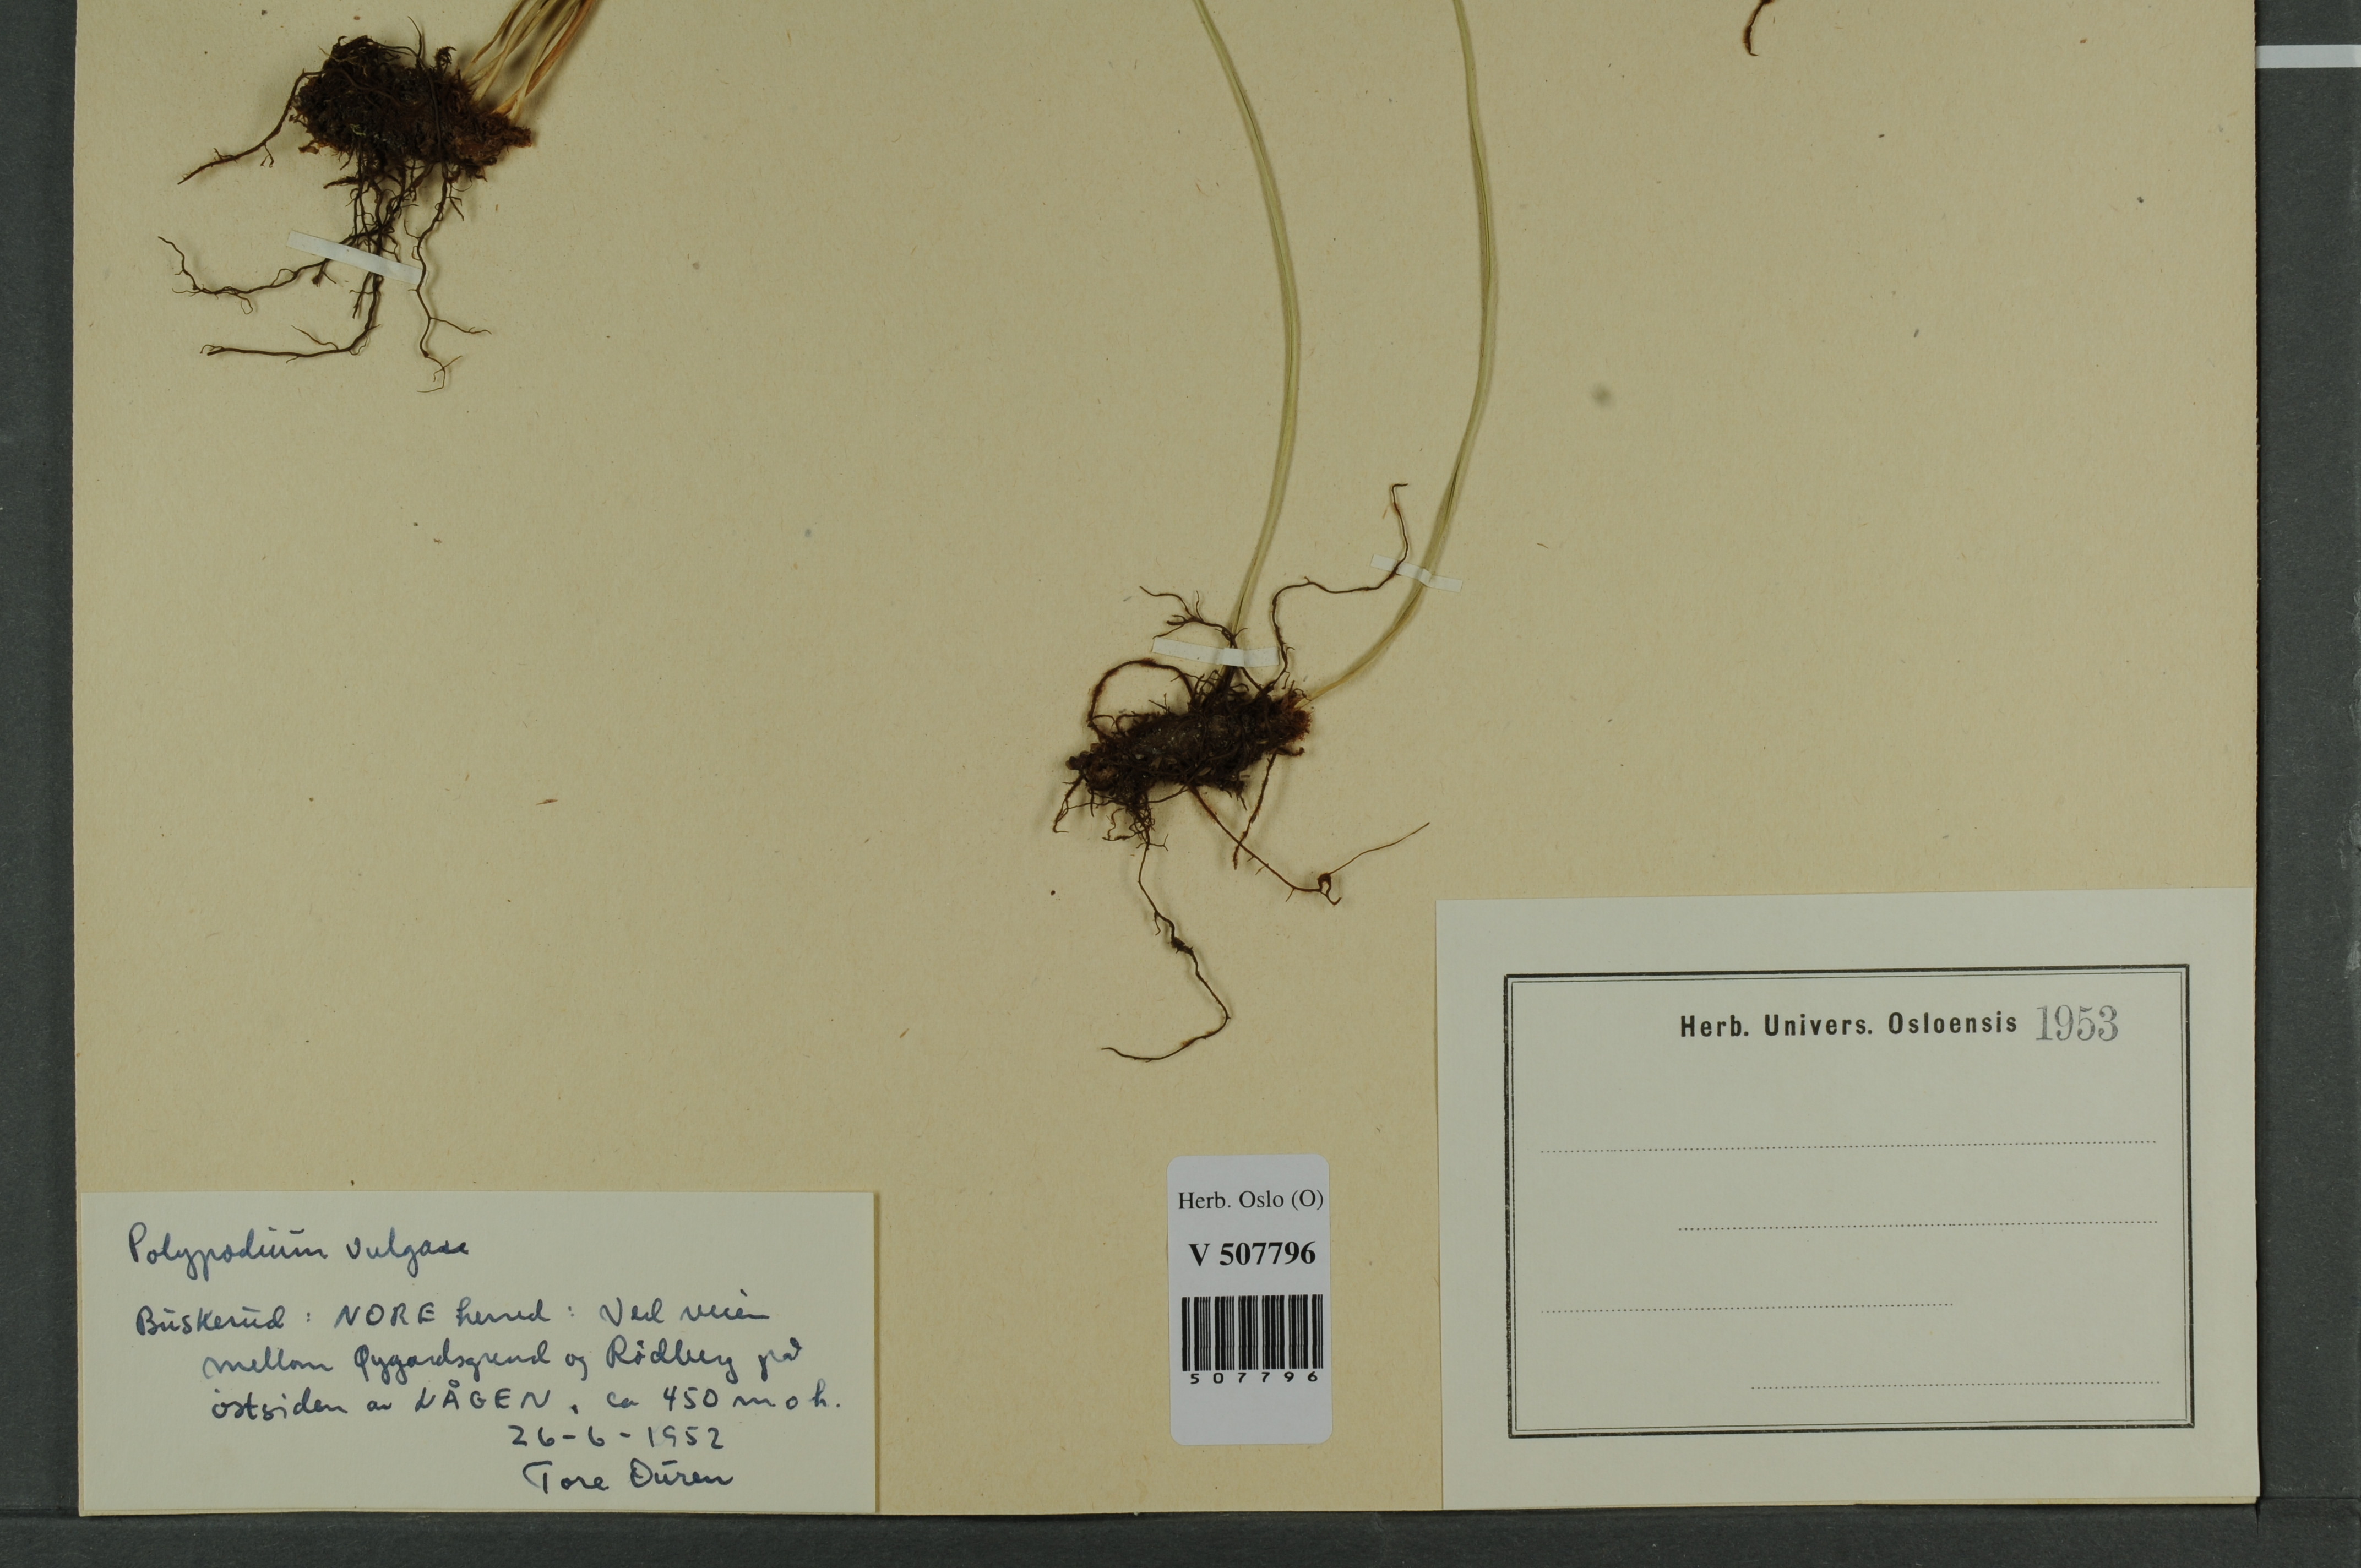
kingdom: Plantae
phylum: Tracheophyta
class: Polypodiopsida
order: Polypodiales
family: Polypodiaceae
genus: Polypodium
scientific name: Polypodium vulgare
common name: Common polypody
